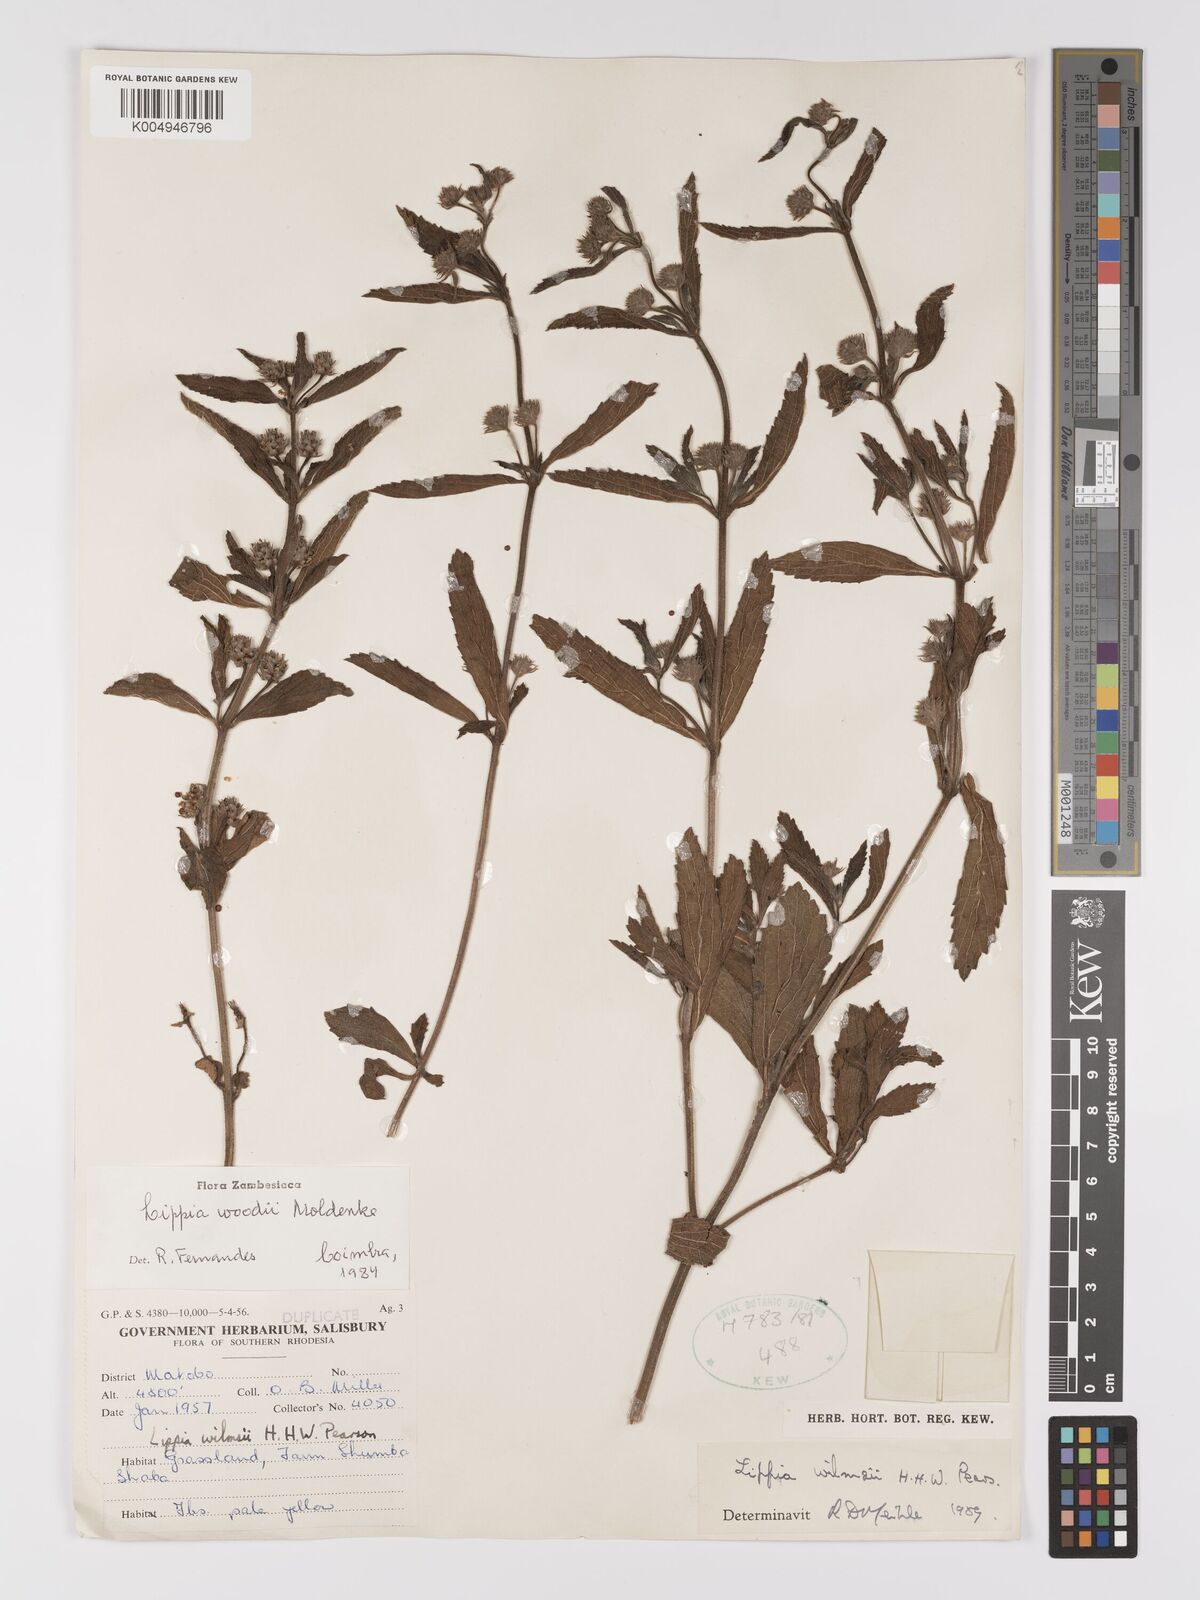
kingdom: Plantae
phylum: Tracheophyta
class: Magnoliopsida
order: Lamiales
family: Verbenaceae
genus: Lippia
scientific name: Lippia woodii
